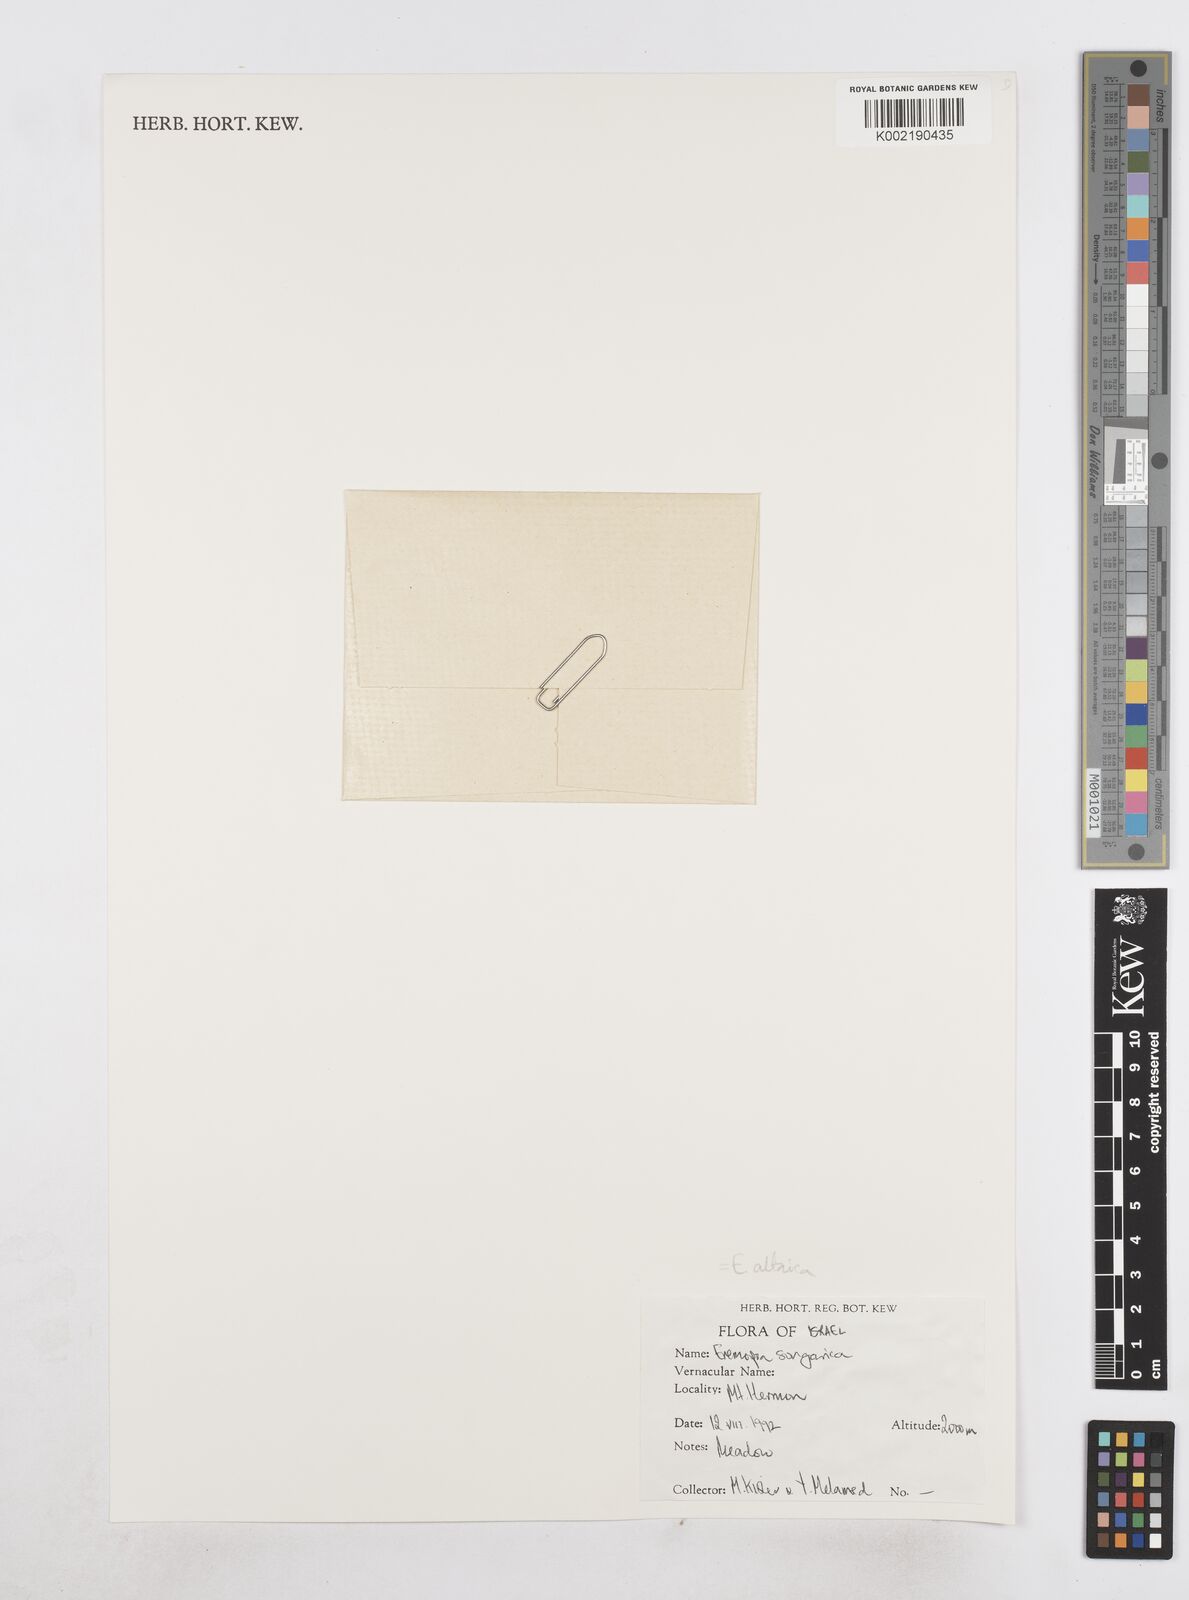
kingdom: Plantae
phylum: Tracheophyta
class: Liliopsida
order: Poales
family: Poaceae
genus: Poa
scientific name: Poa diaphora
